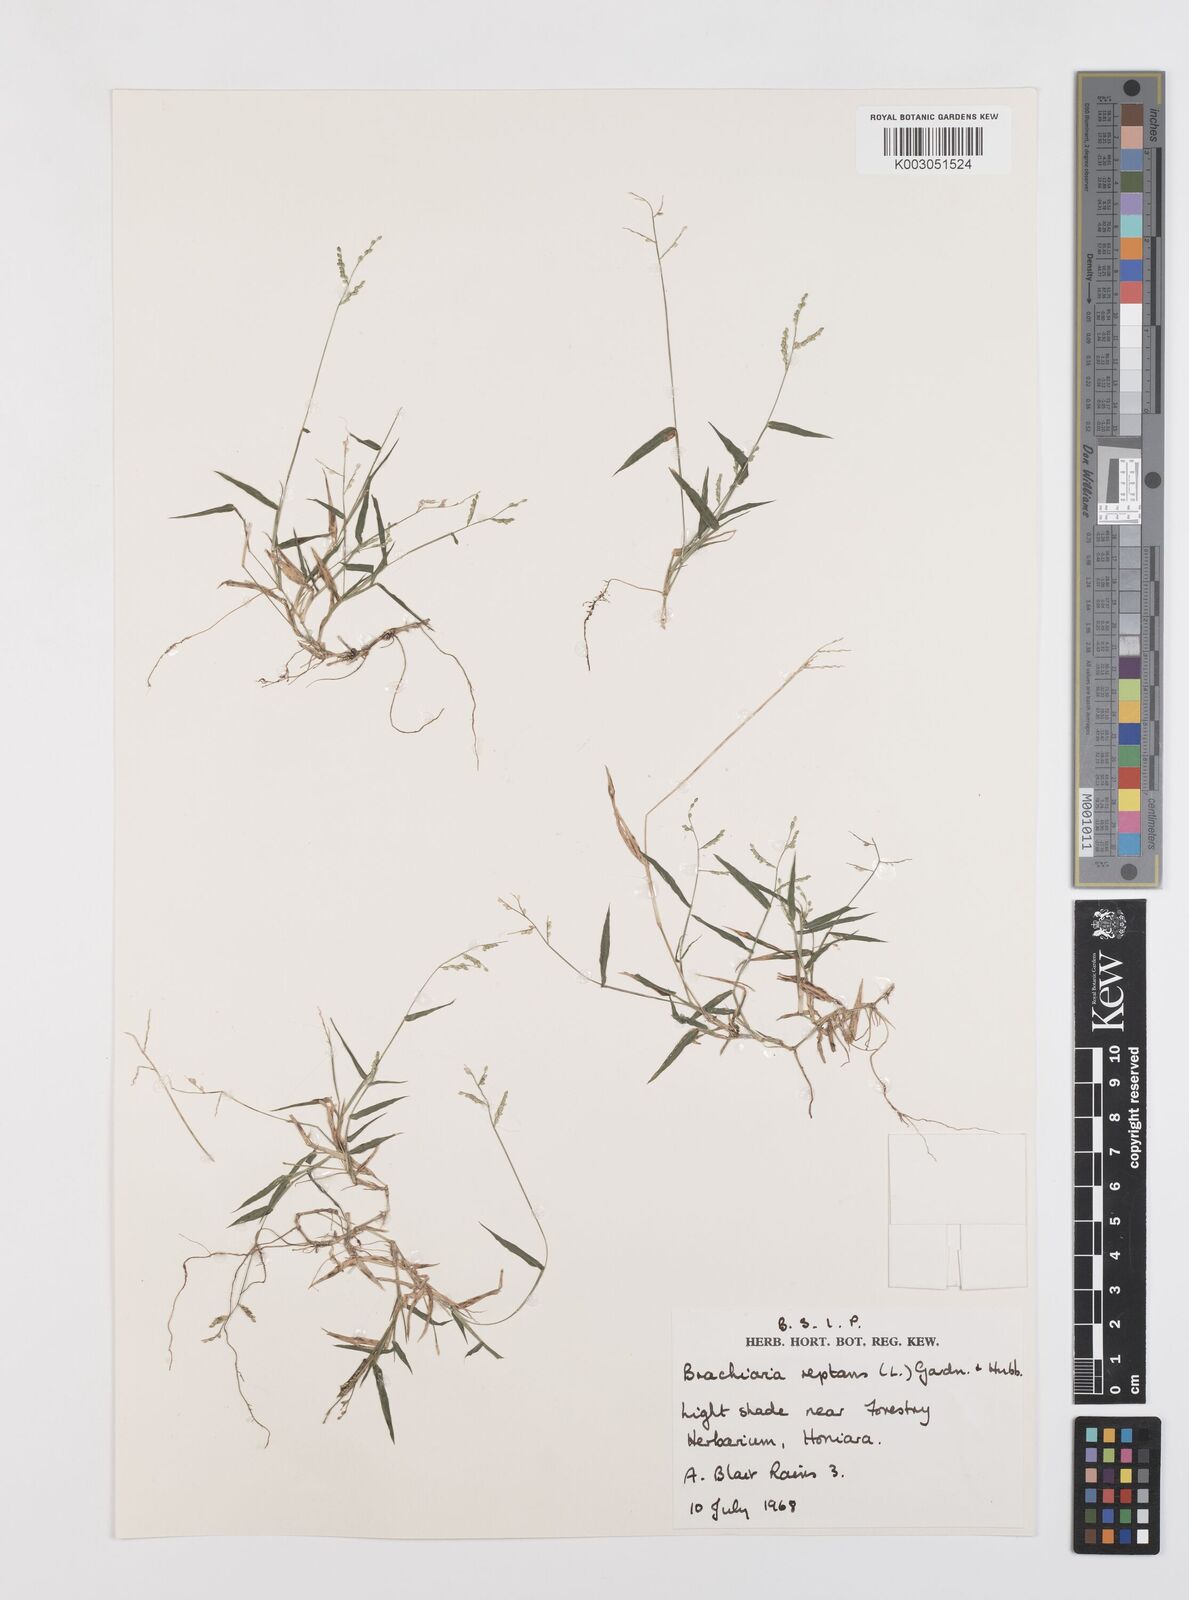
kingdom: Plantae
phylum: Tracheophyta
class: Liliopsida
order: Poales
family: Poaceae
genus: Urochloa
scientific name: Urochloa reptans
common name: Sprawling signalgrass
